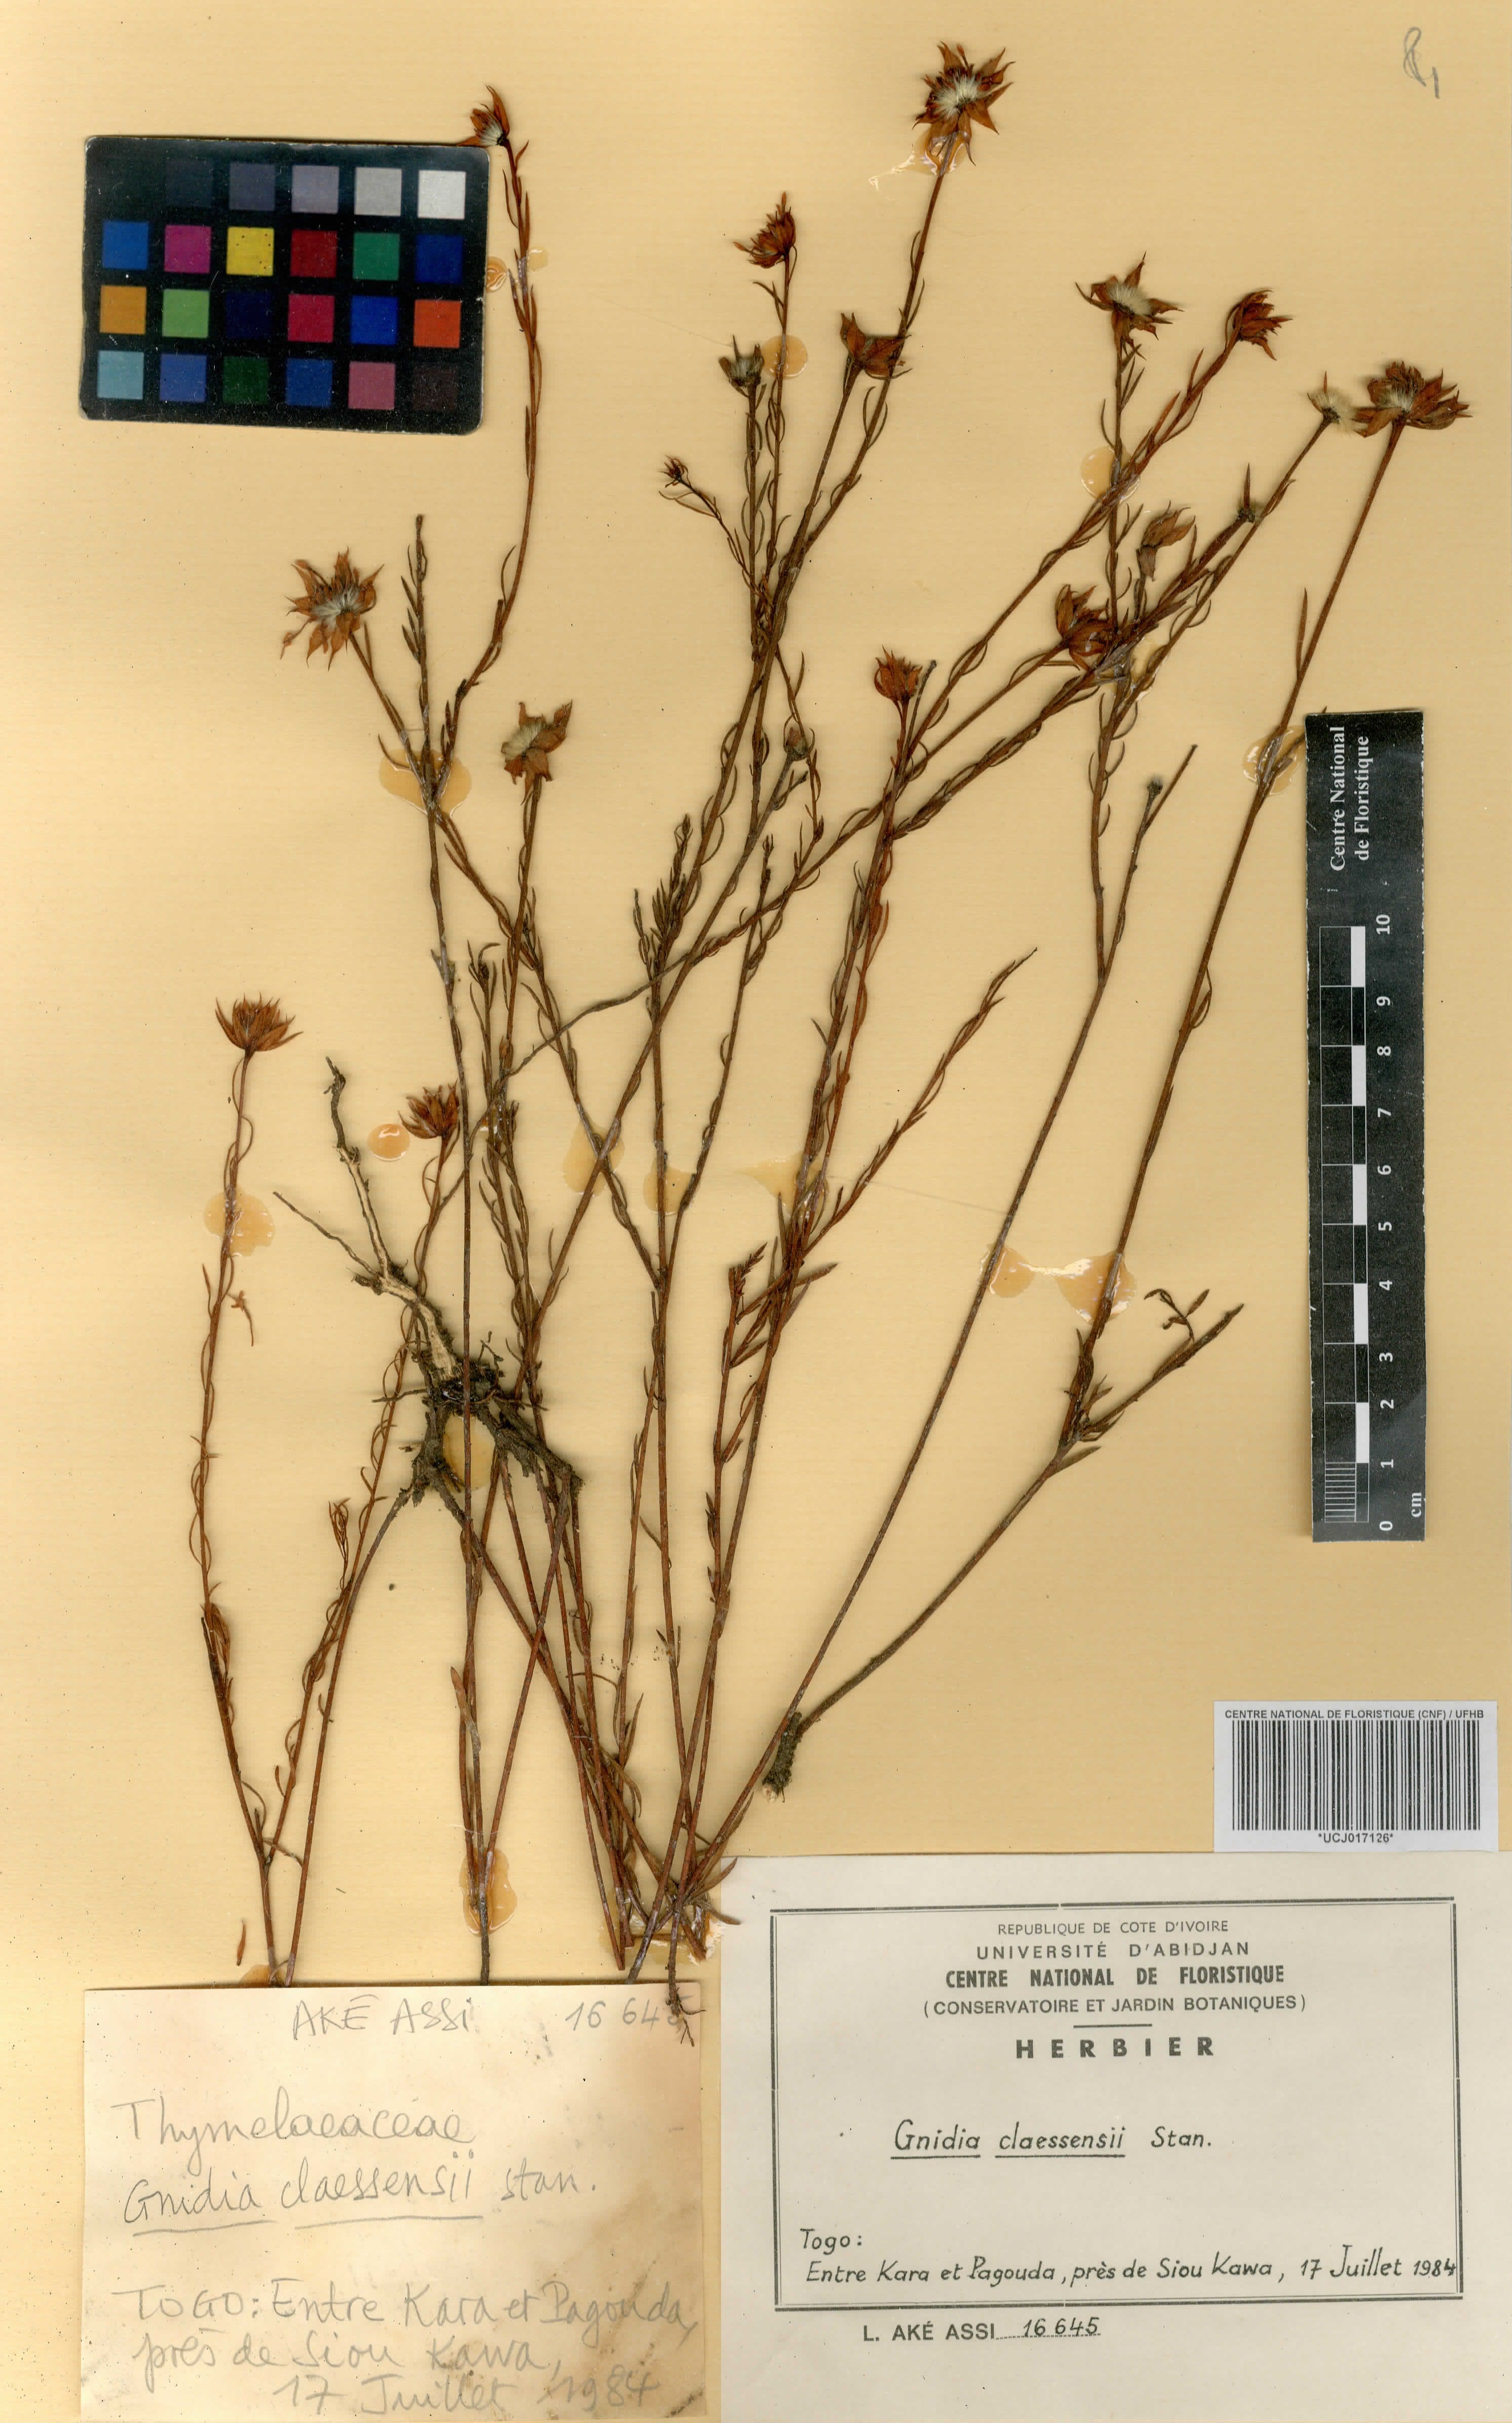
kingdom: Plantae
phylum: Tracheophyta
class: Magnoliopsida
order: Malvales
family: Thymelaeaceae
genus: Gnidia
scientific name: Gnidia stenophylla
